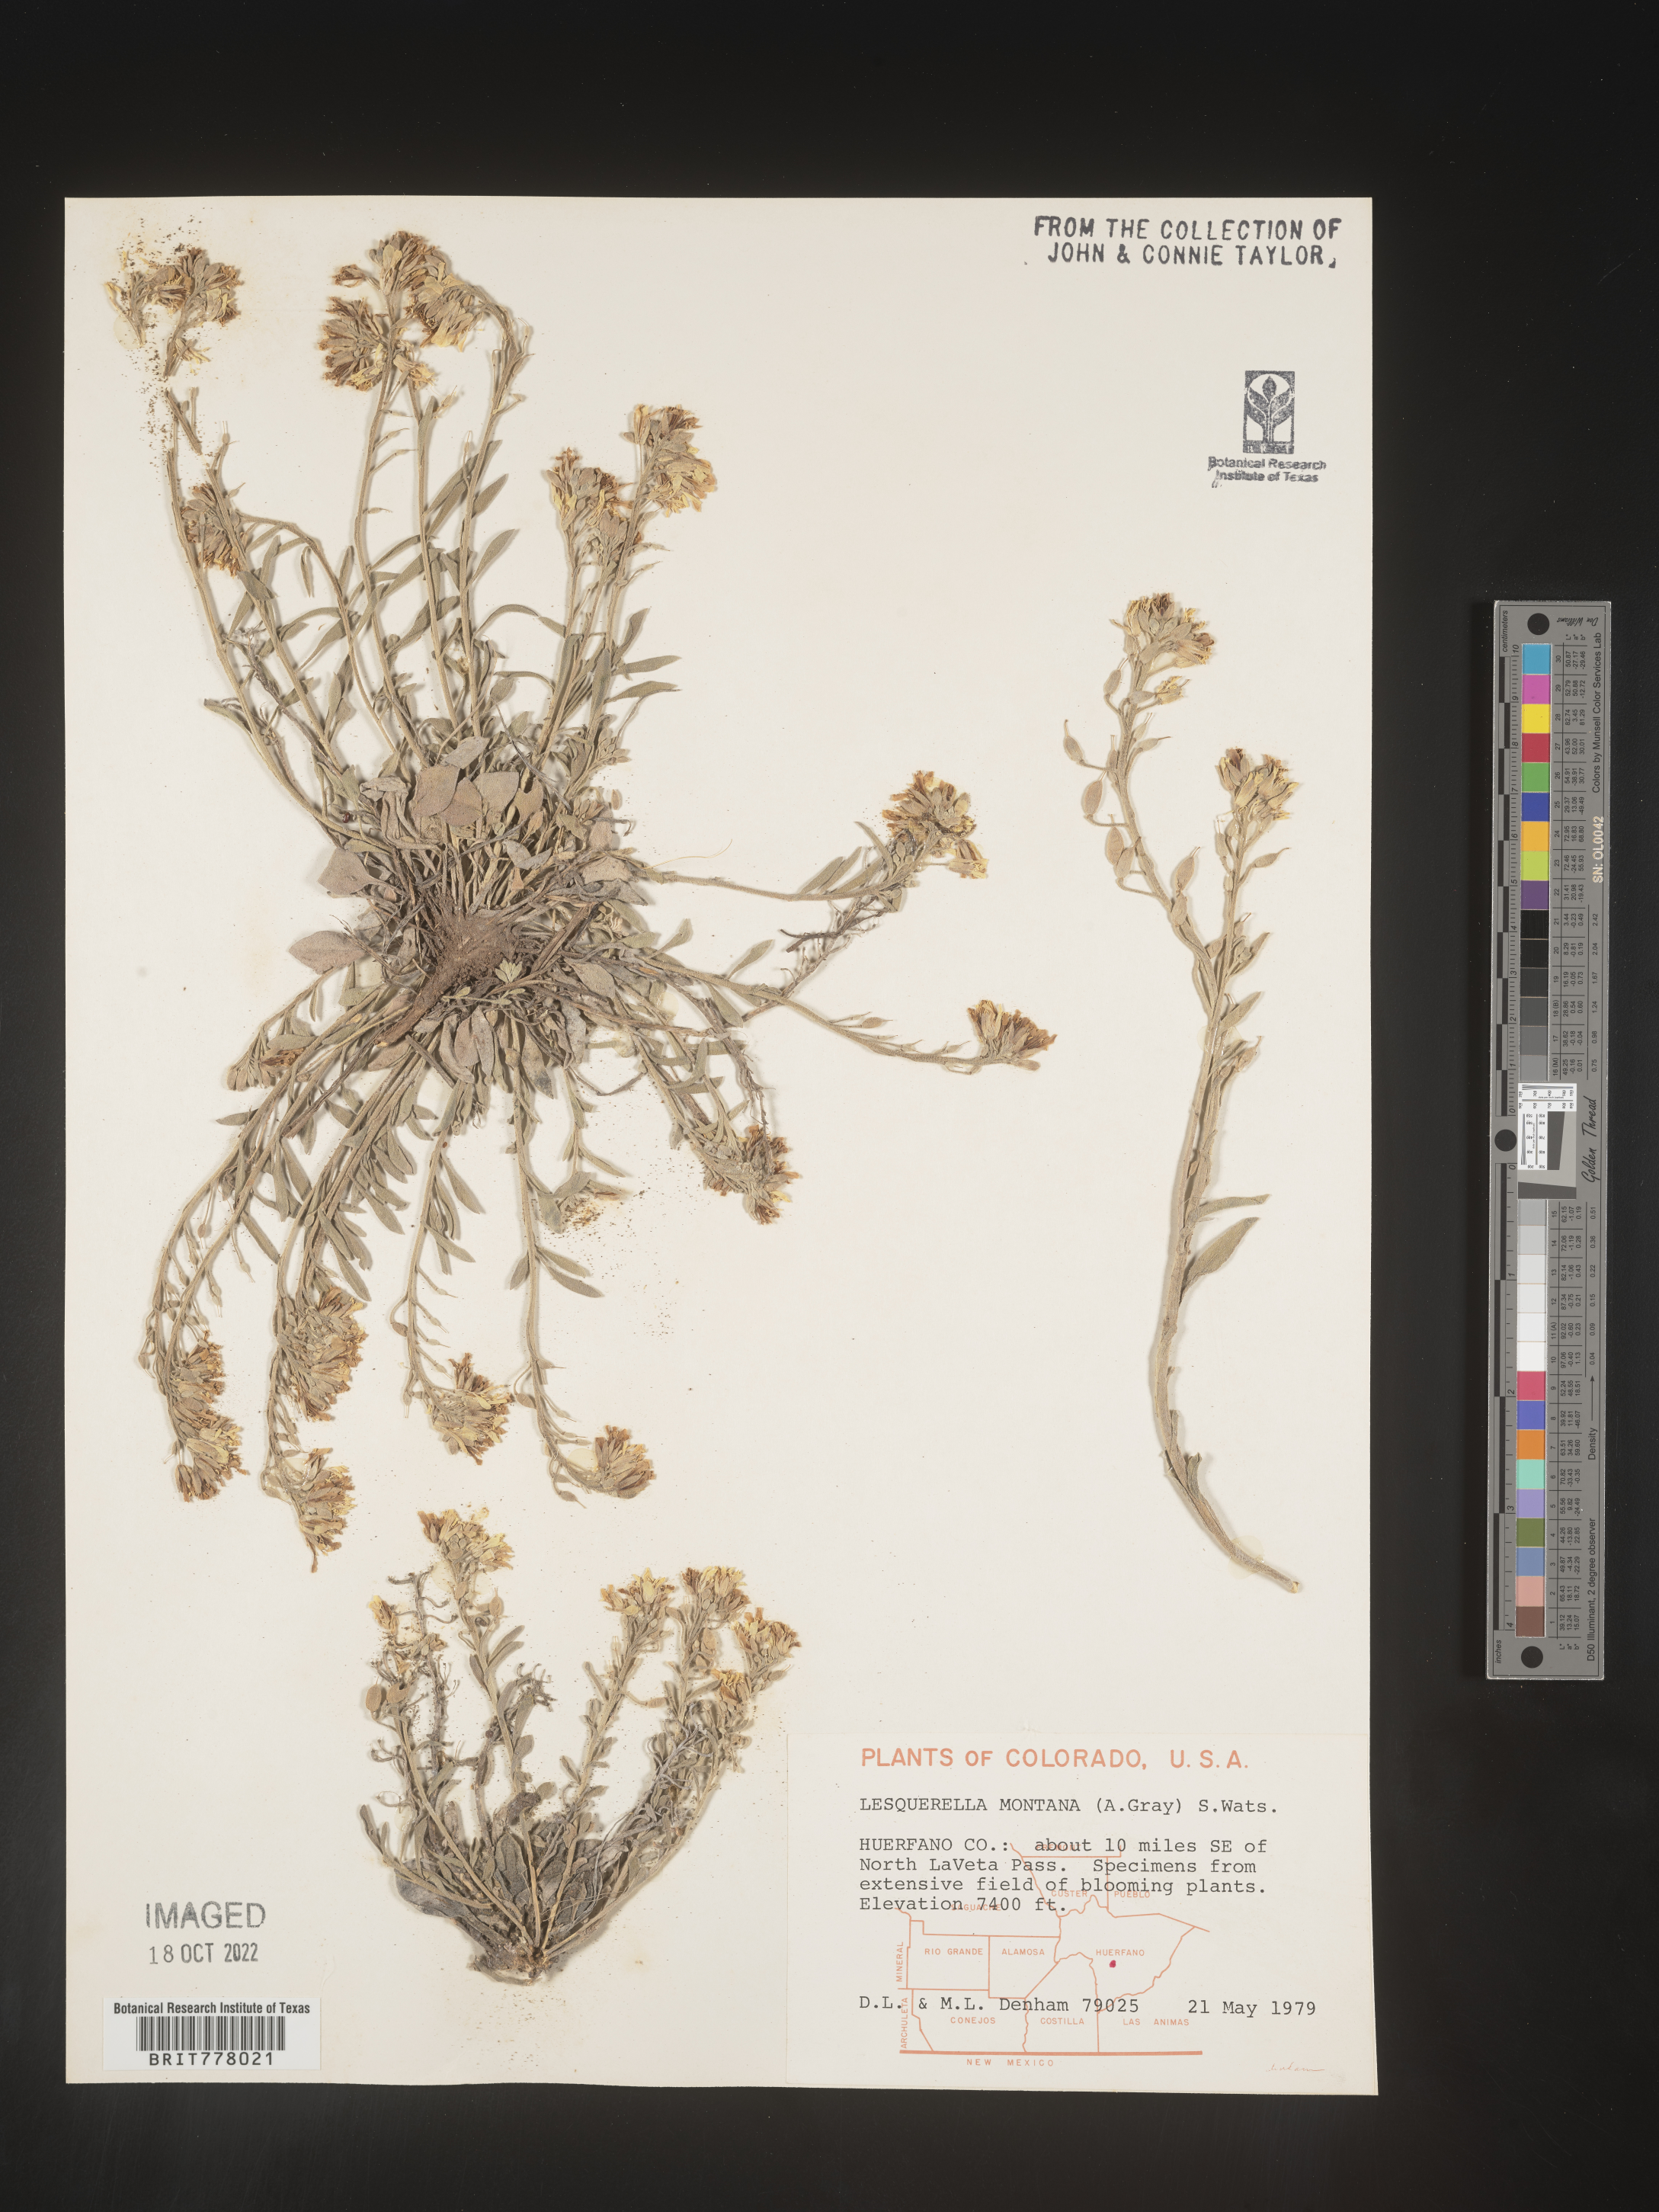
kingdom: Chromista
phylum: Cercozoa
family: Psammonobiotidae
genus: Lesquerella
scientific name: Lesquerella
